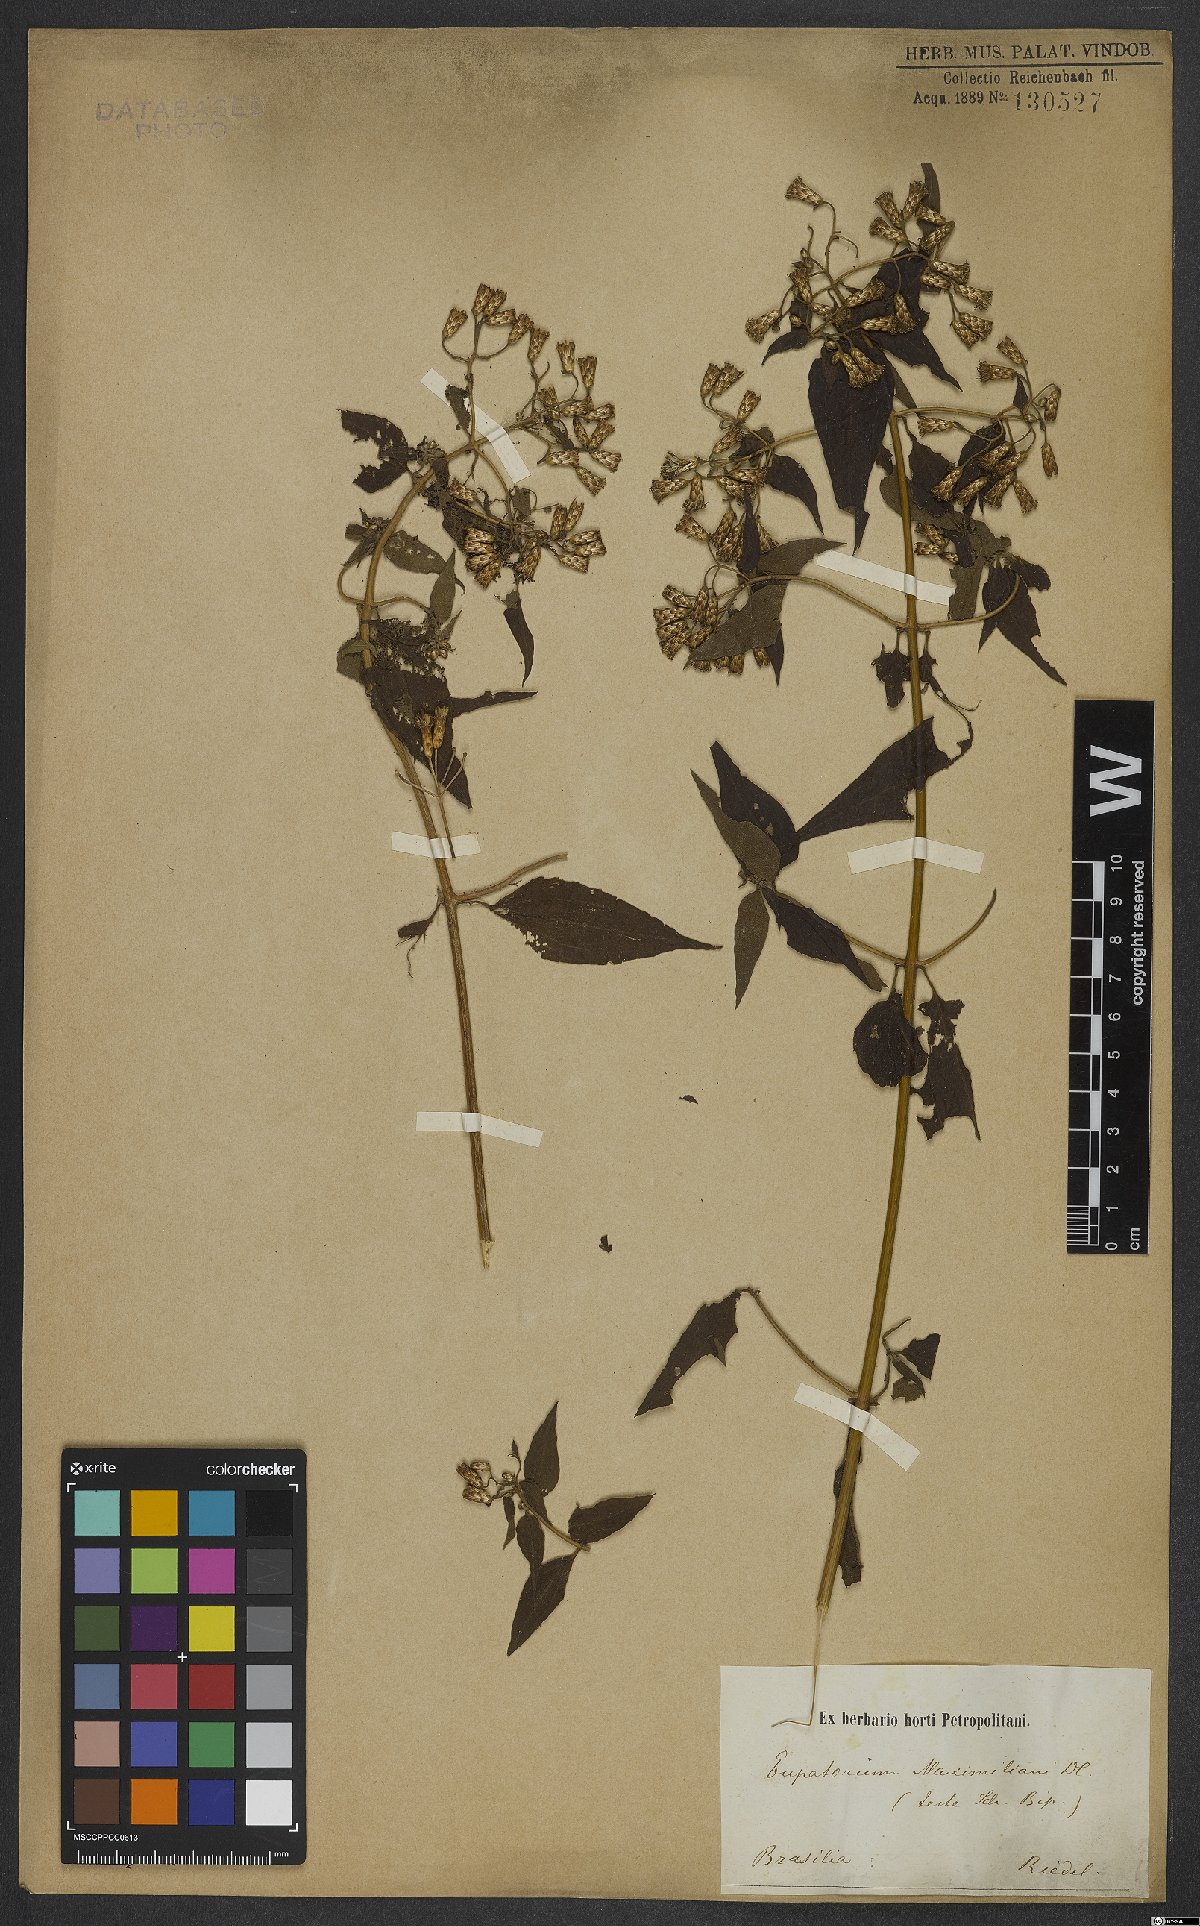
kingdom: Plantae
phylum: Tracheophyta
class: Magnoliopsida
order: Asterales
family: Asteraceae
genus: Chromolaena
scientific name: Chromolaena odorata
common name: Siamweed
